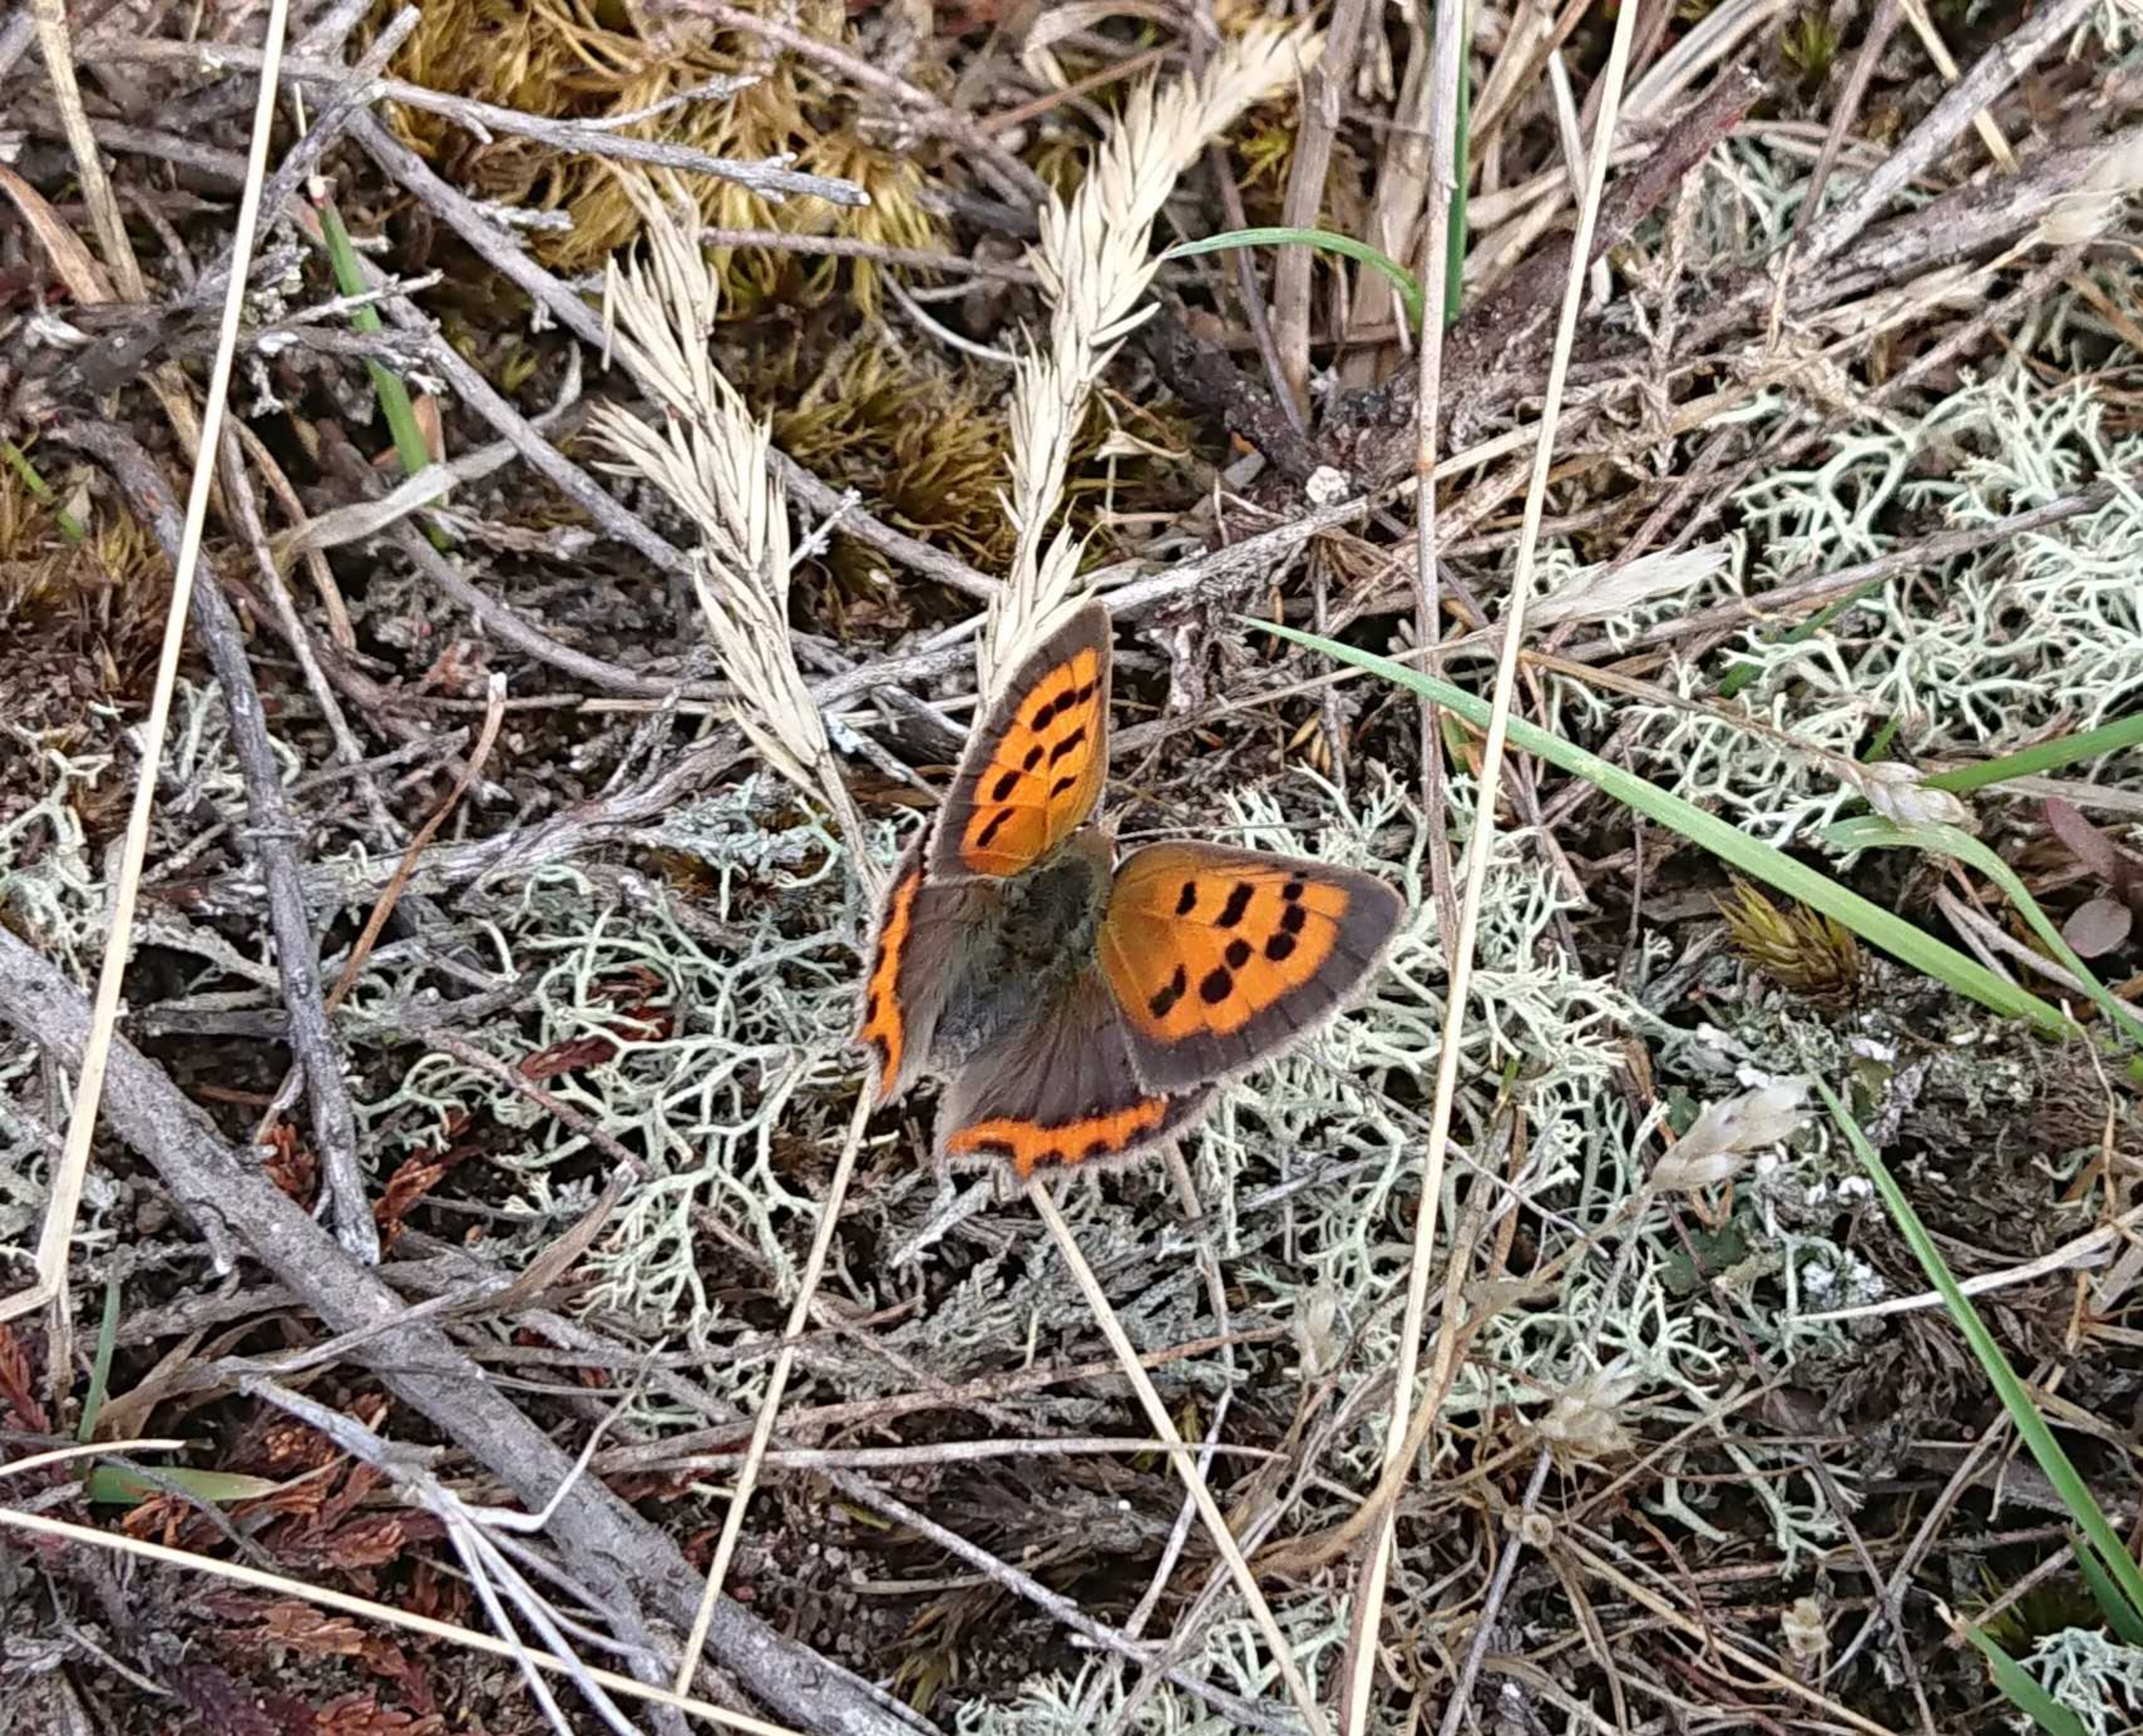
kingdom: Animalia
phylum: Arthropoda
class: Insecta
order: Lepidoptera
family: Lycaenidae
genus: Lycaena
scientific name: Lycaena phlaeas
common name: Lille ildfugl
